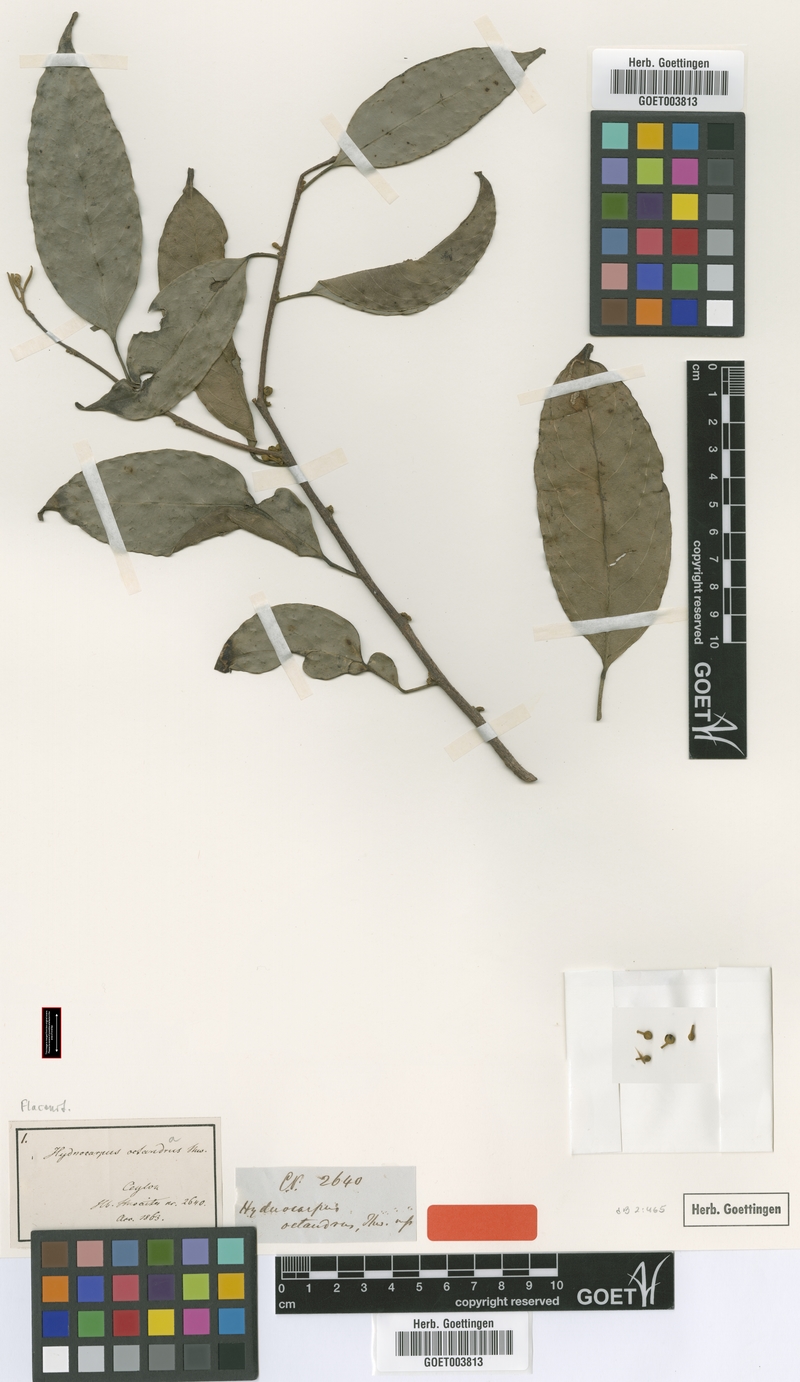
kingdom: Plantae
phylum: Tracheophyta
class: Magnoliopsida
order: Malpighiales
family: Achariaceae
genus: Hydnocarpus
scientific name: Hydnocarpus octandrus
